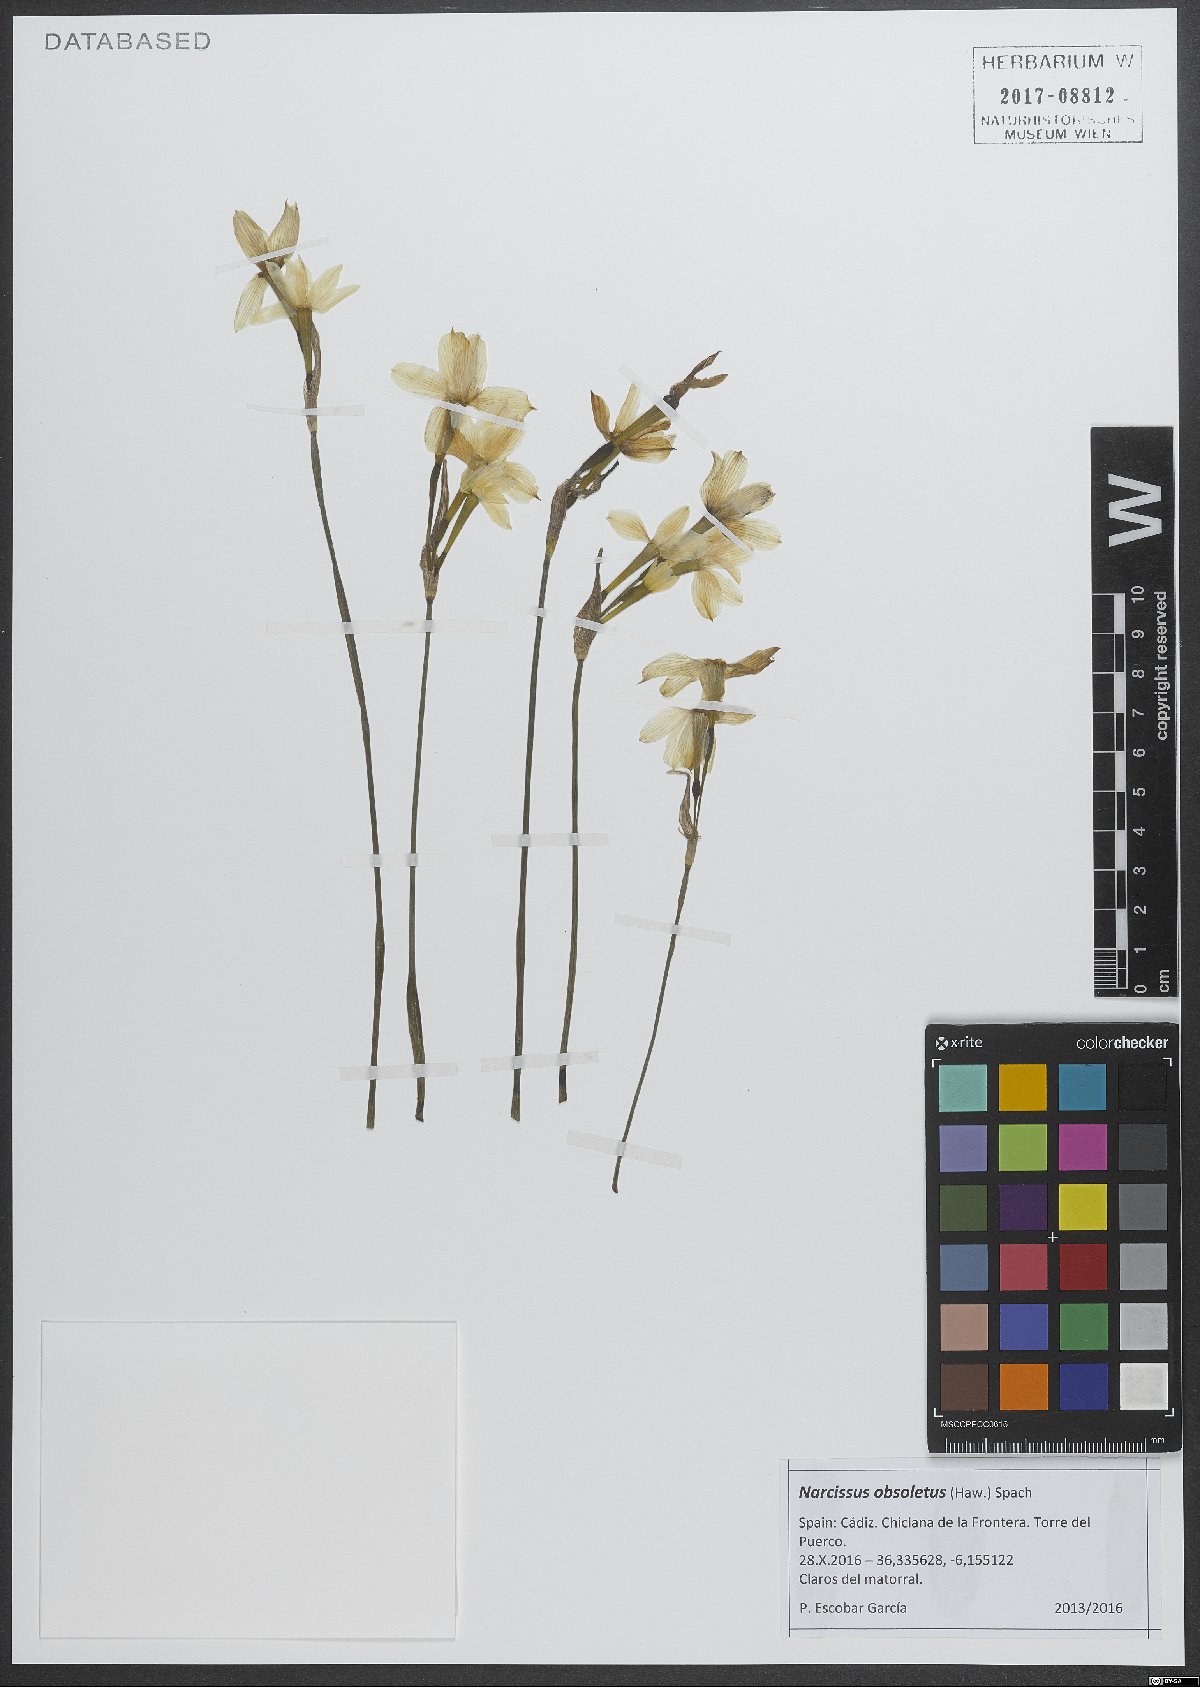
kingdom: Plantae
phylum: Tracheophyta
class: Liliopsida
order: Asparagales
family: Amaryllidaceae
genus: Narcissus
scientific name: Narcissus obsoletus
